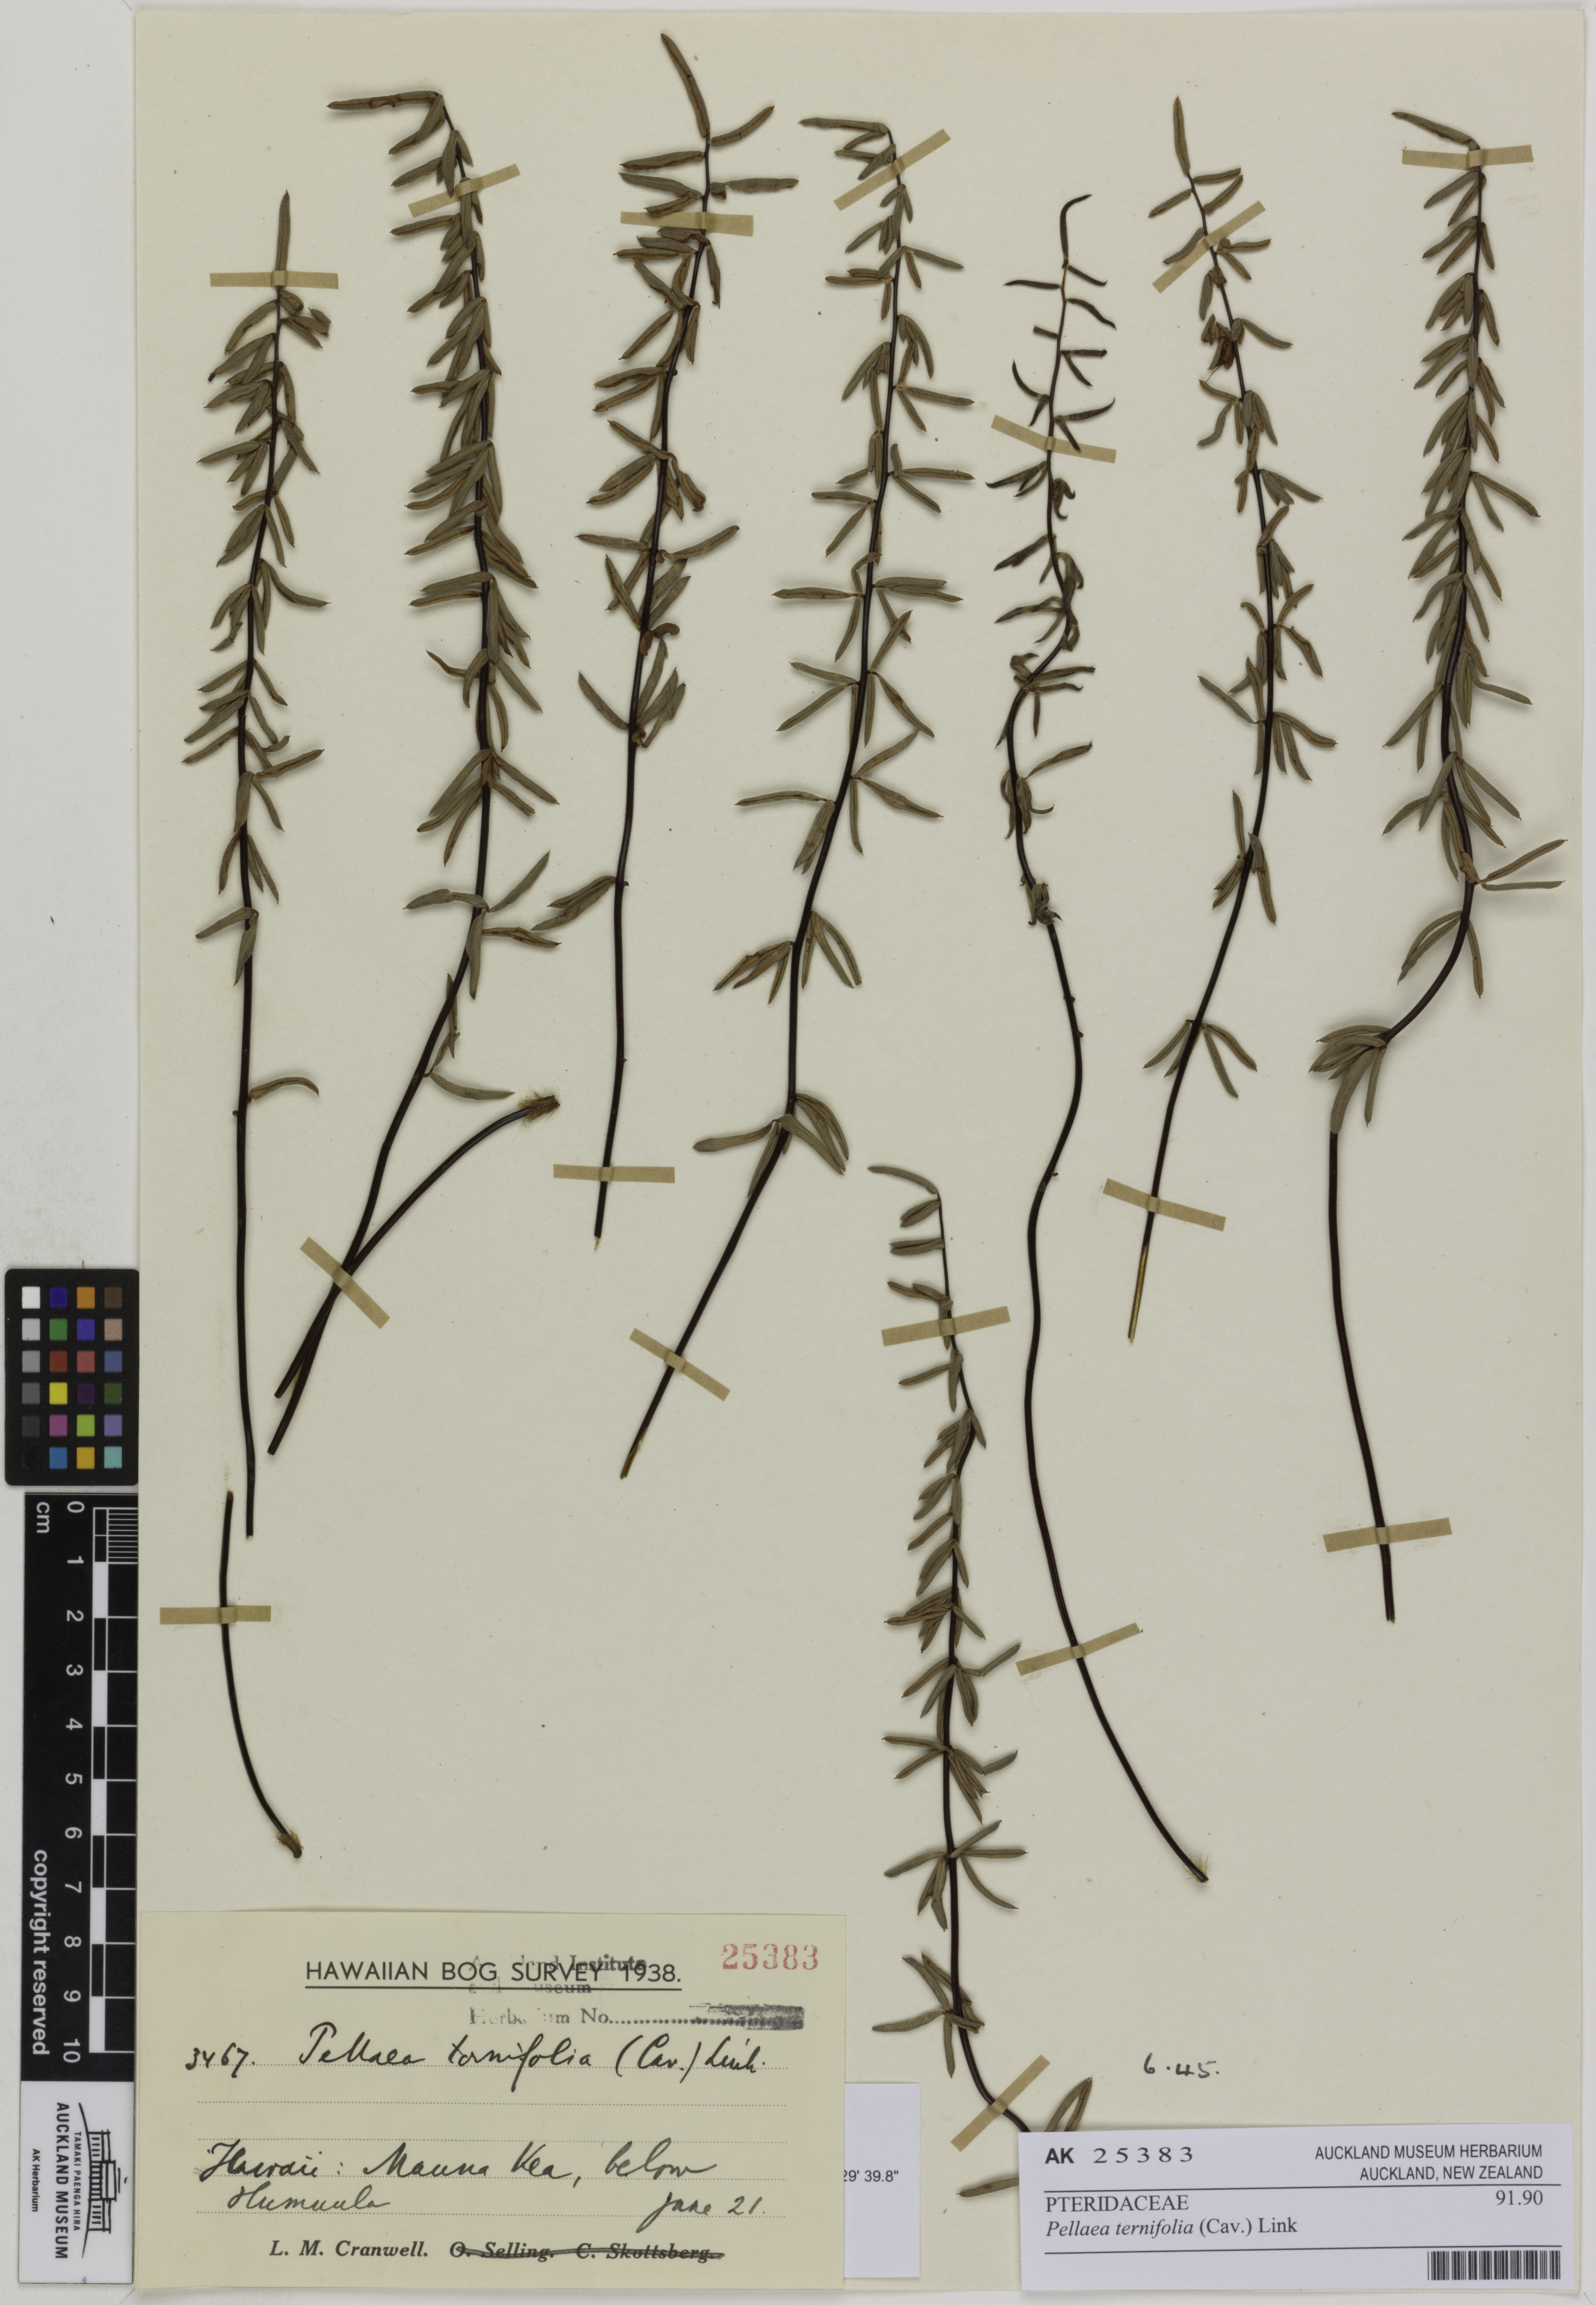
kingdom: Plantae
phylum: Tracheophyta
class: Polypodiopsida
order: Polypodiales
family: Pteridaceae
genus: Pellaea
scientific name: Pellaea ternifolia
